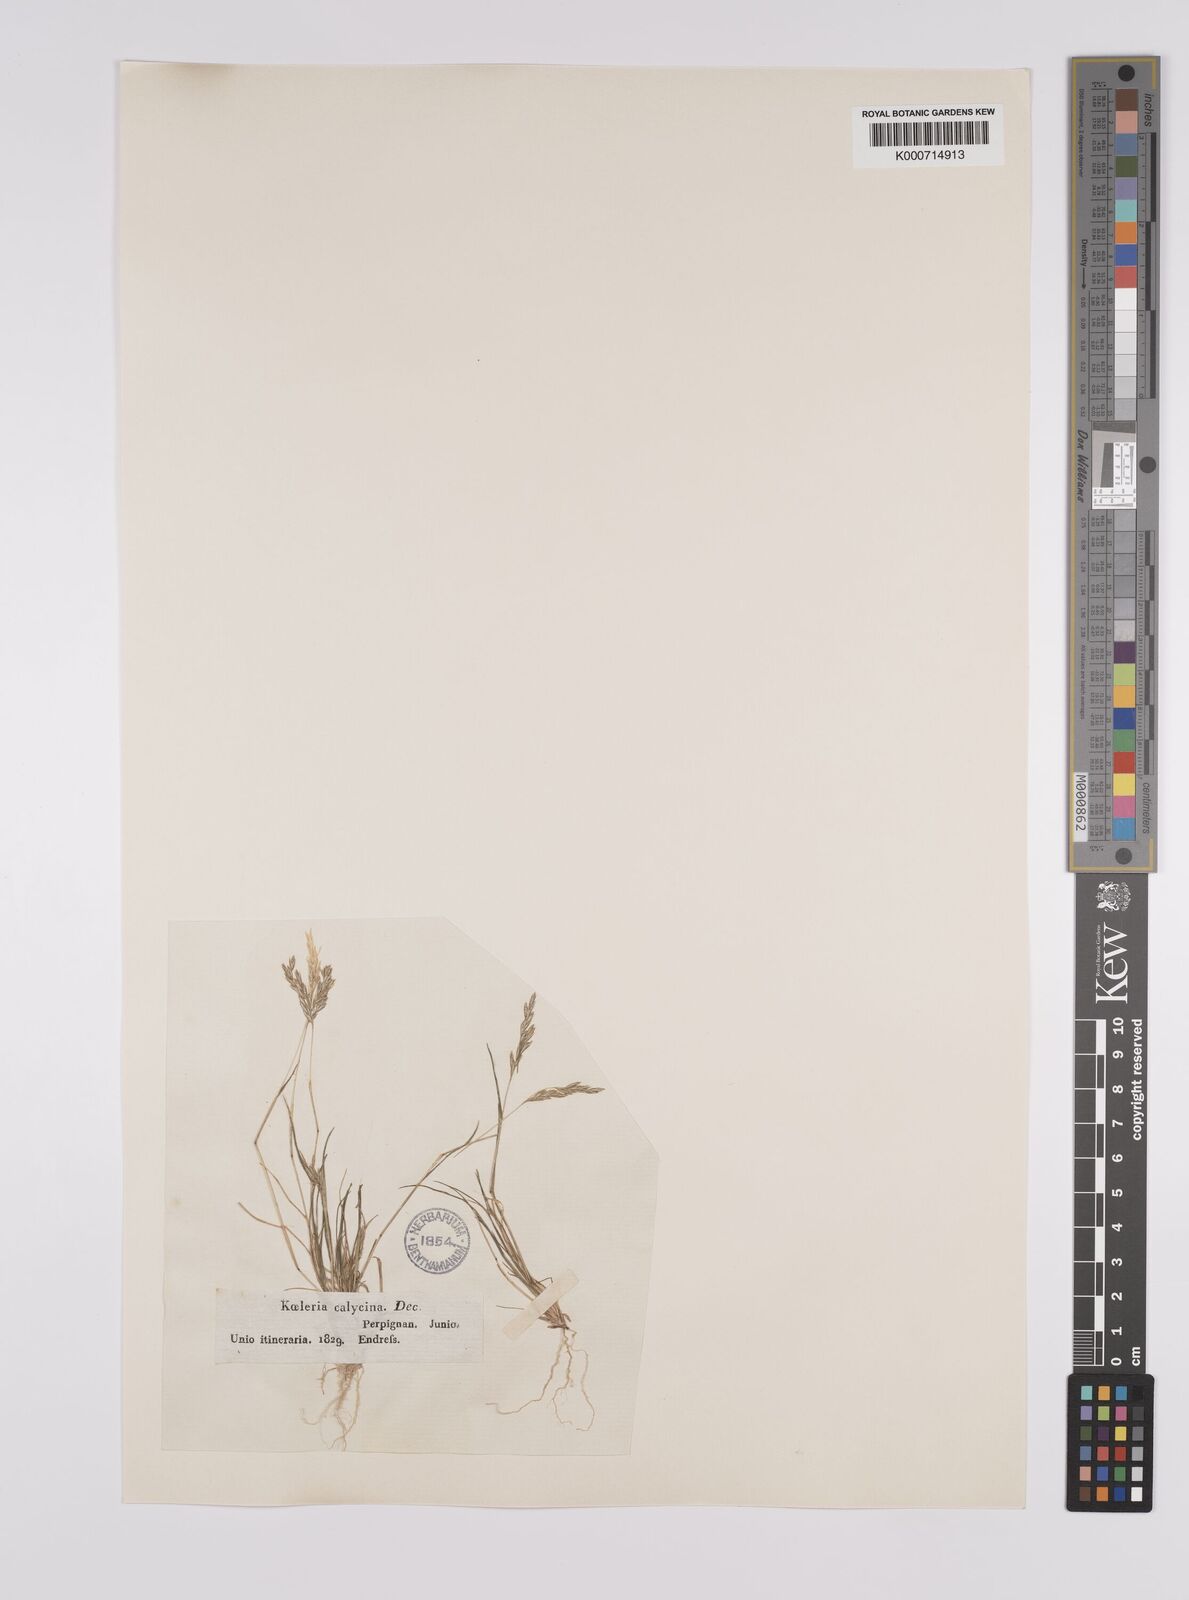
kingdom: Plantae
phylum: Tracheophyta
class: Liliopsida
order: Poales
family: Poaceae
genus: Schismus
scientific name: Schismus barbatus
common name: Kelch-grass
